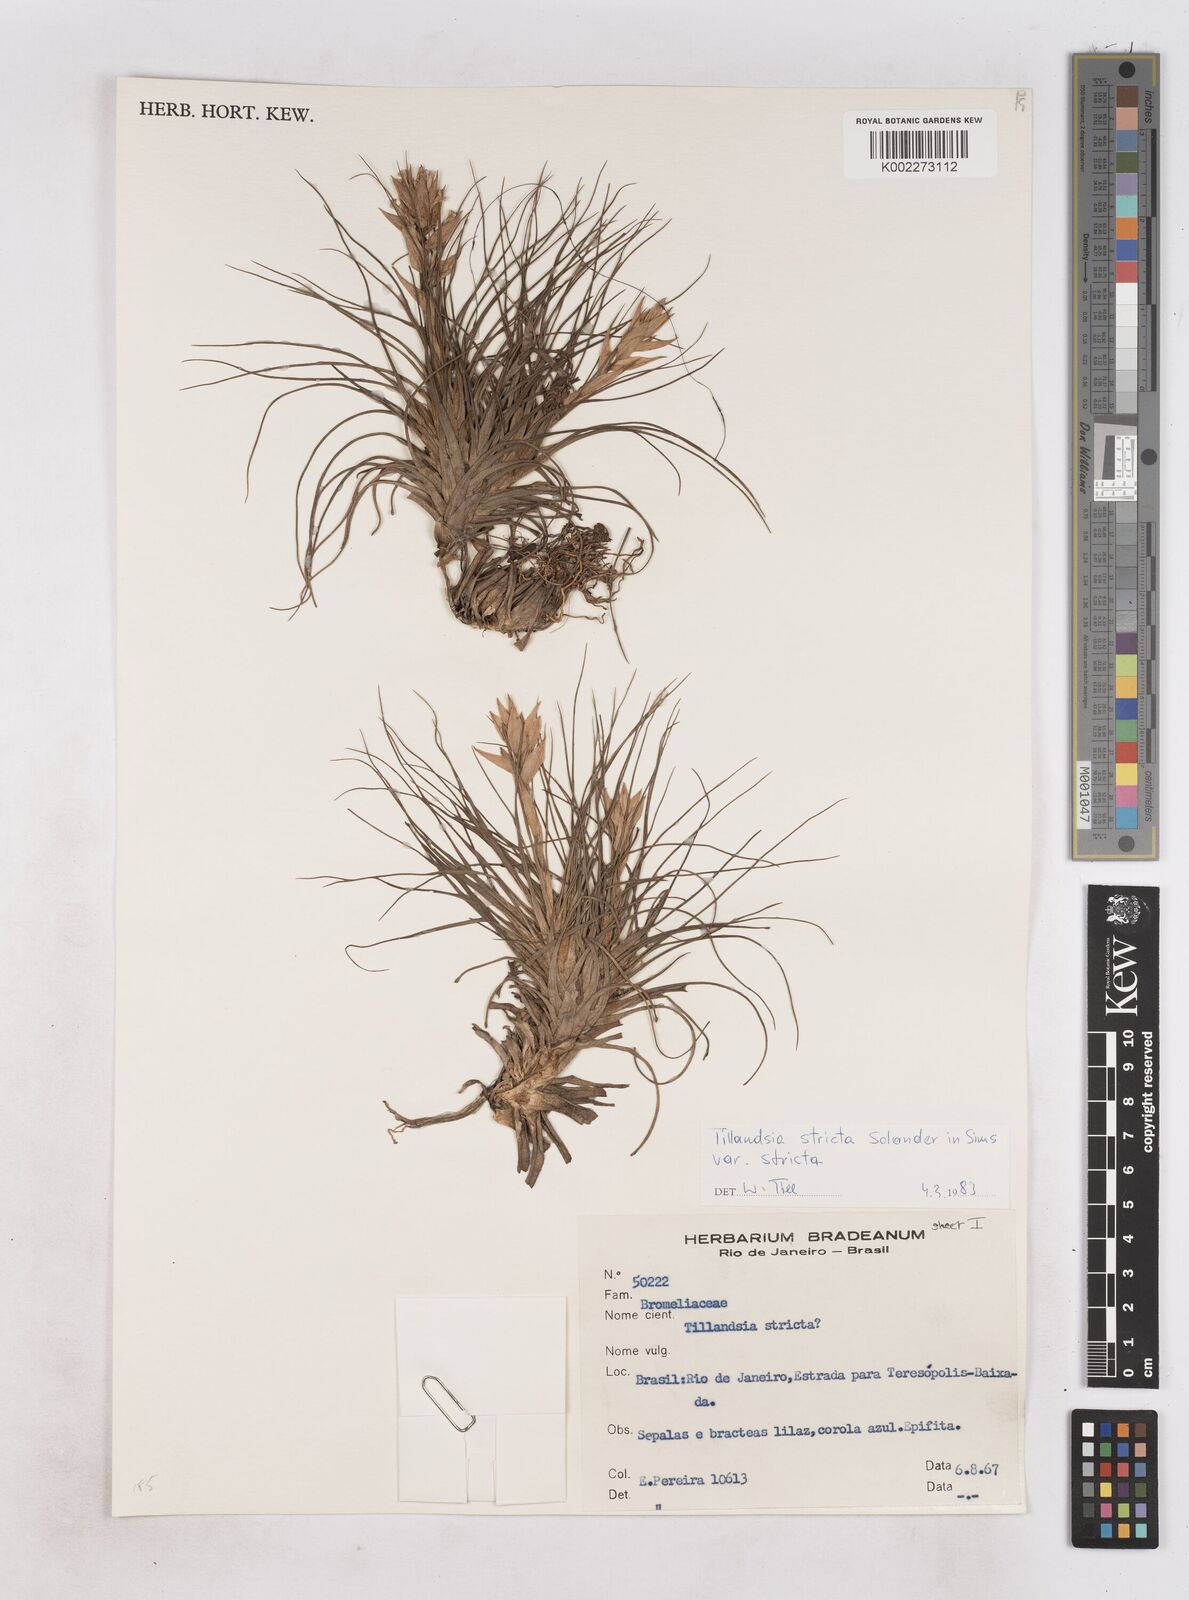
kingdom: Plantae
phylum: Tracheophyta
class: Liliopsida
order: Poales
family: Bromeliaceae
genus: Tillandsia
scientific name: Tillandsia stricta
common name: Airplant
